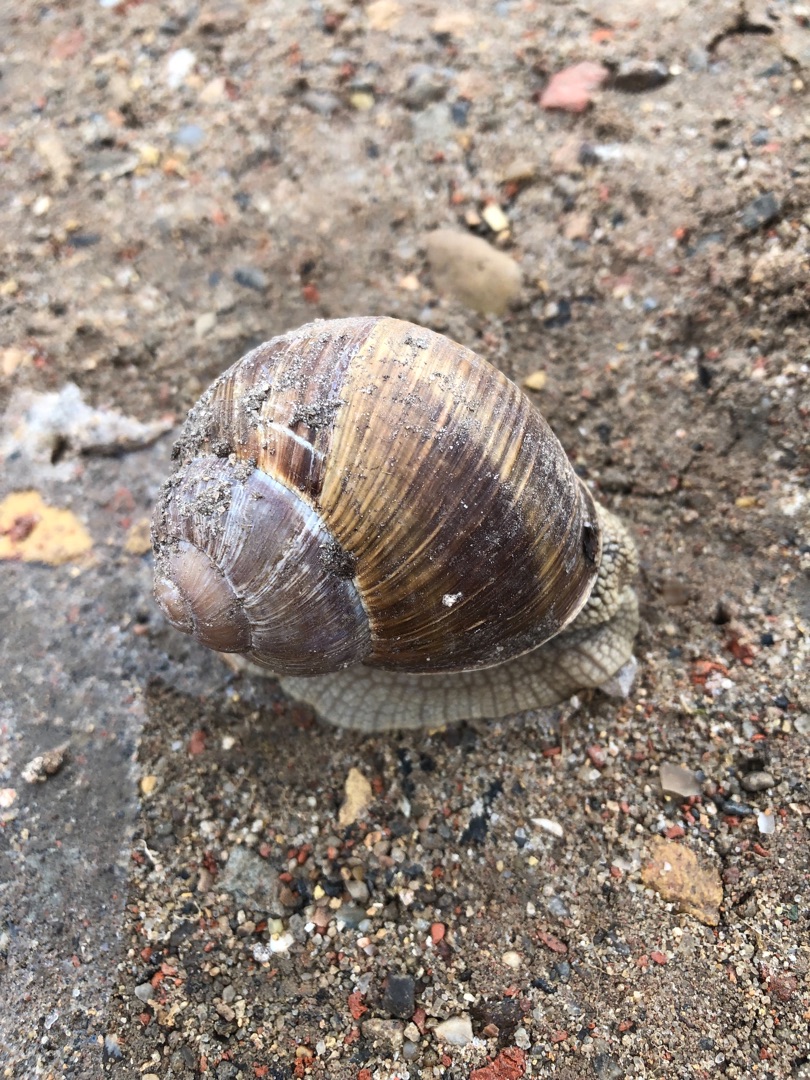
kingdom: Animalia
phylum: Mollusca
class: Gastropoda
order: Stylommatophora
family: Helicidae
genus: Helix
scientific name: Helix pomatia
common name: Vinbjergsnegl
